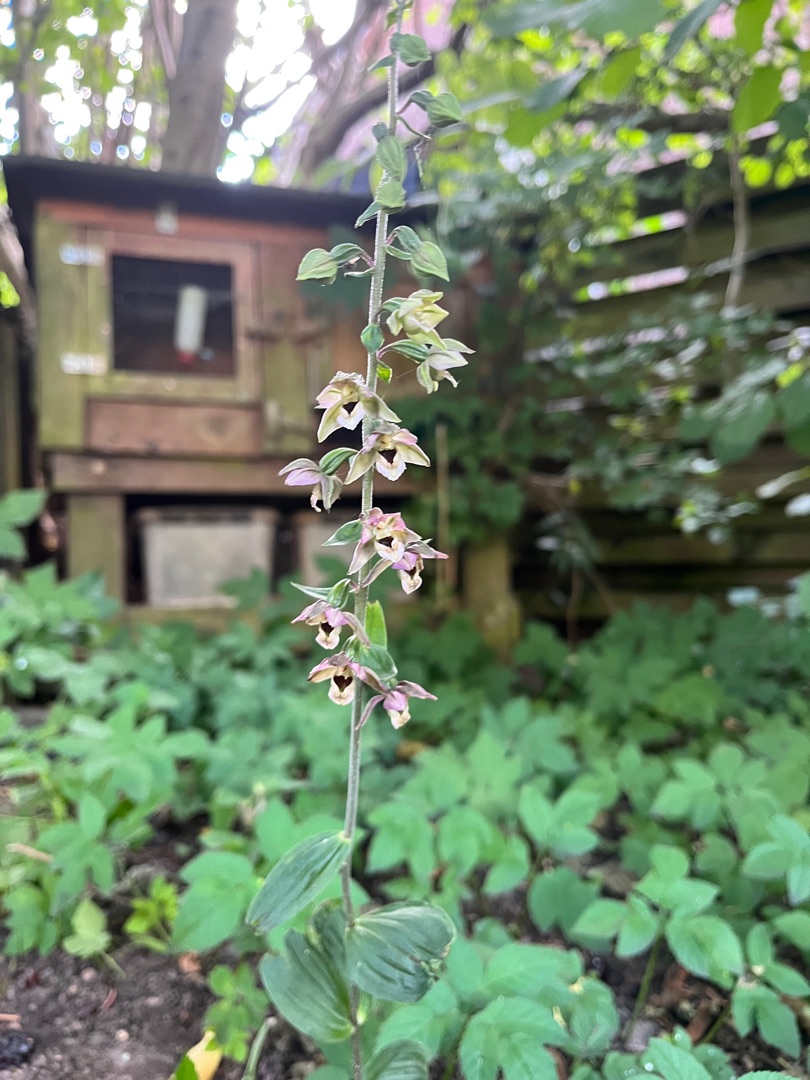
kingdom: Plantae
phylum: Tracheophyta
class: Liliopsida
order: Asparagales
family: Orchidaceae
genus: Epipactis
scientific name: Epipactis helleborine
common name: Skov-hullæbe
